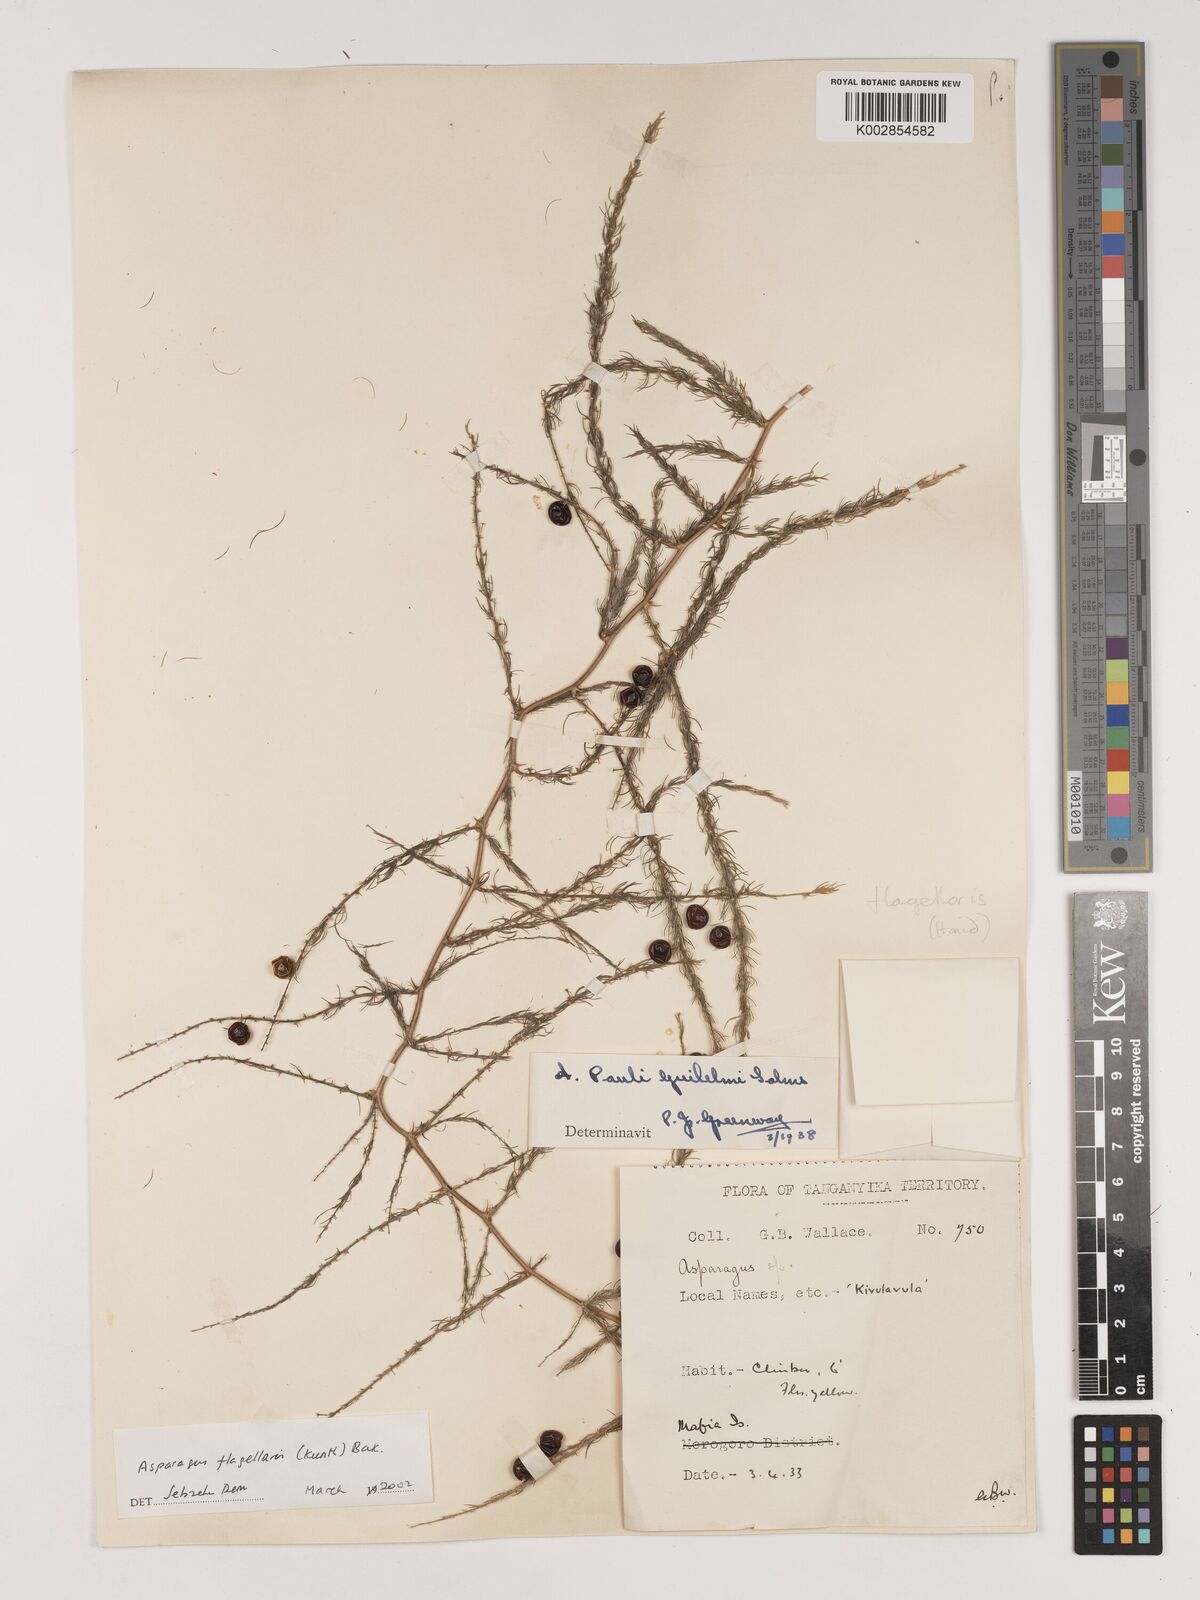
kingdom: Plantae
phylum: Tracheophyta
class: Liliopsida
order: Asparagales
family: Asparagaceae
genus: Asparagus
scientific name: Asparagus flagellaris
